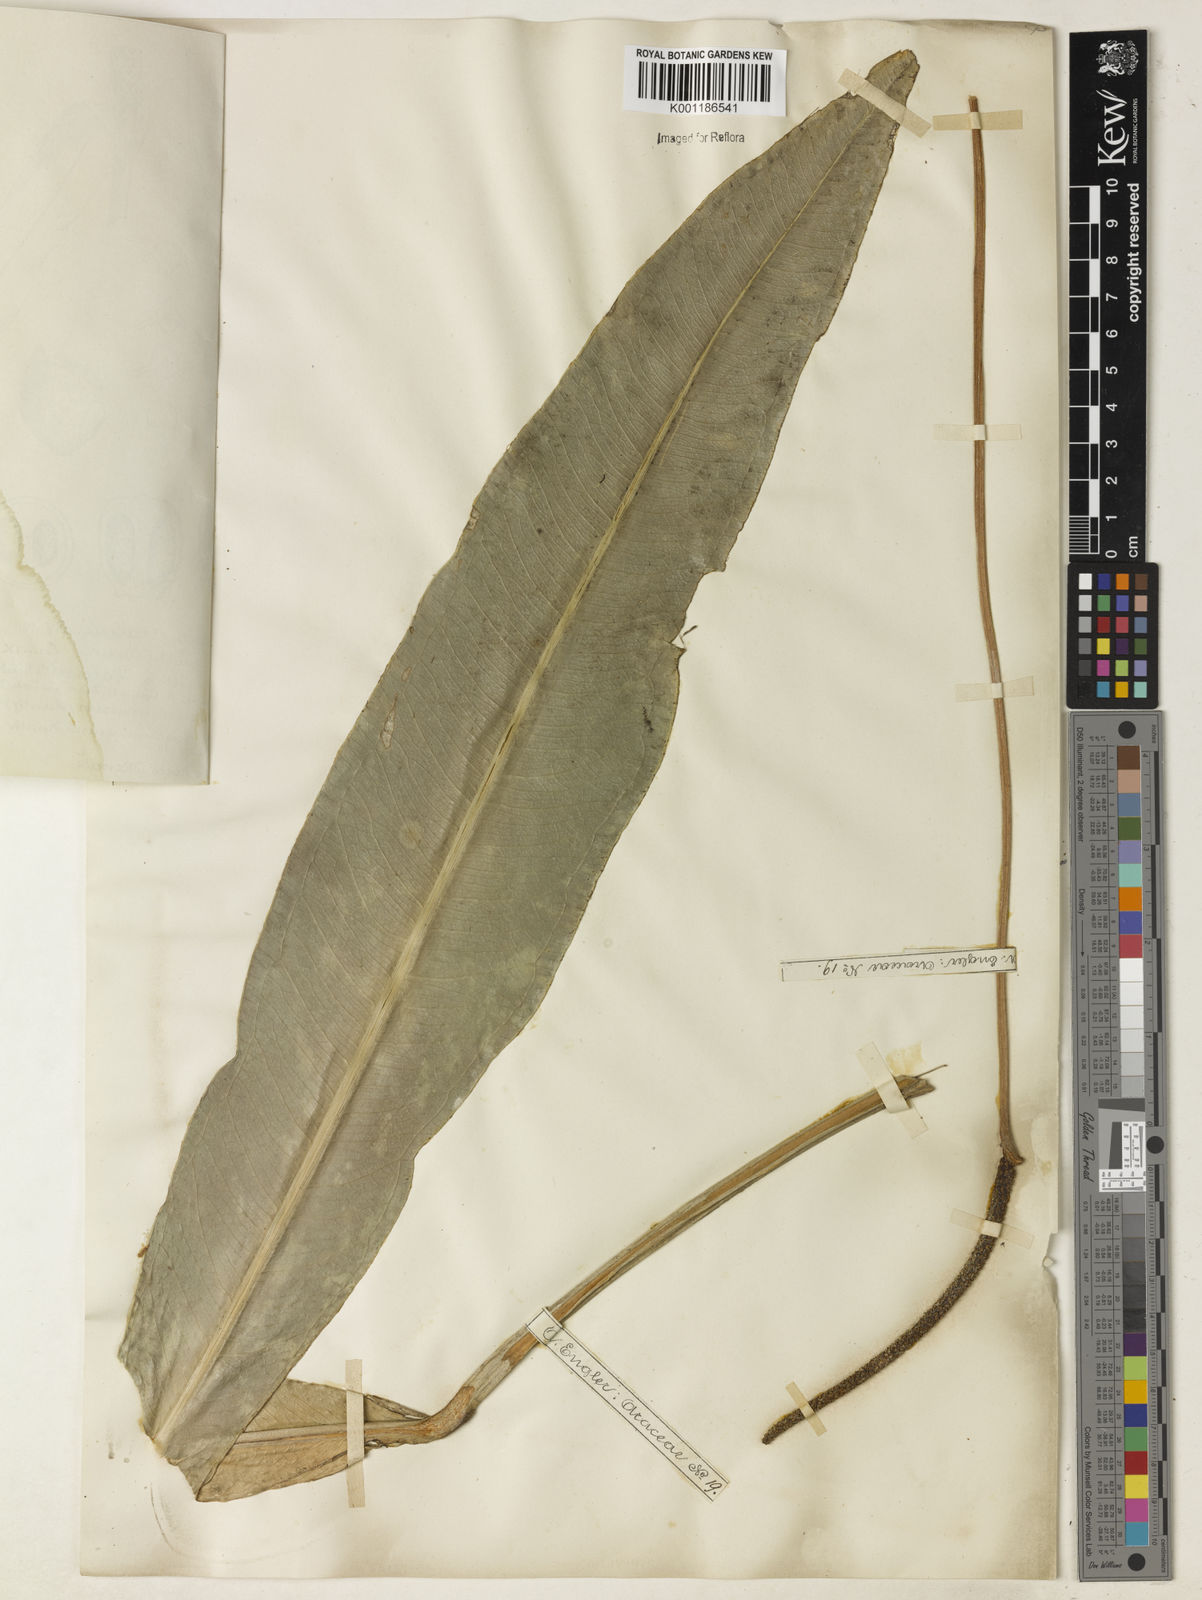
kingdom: Plantae
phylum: Tracheophyta
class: Liliopsida
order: Alismatales
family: Araceae
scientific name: Araceae
